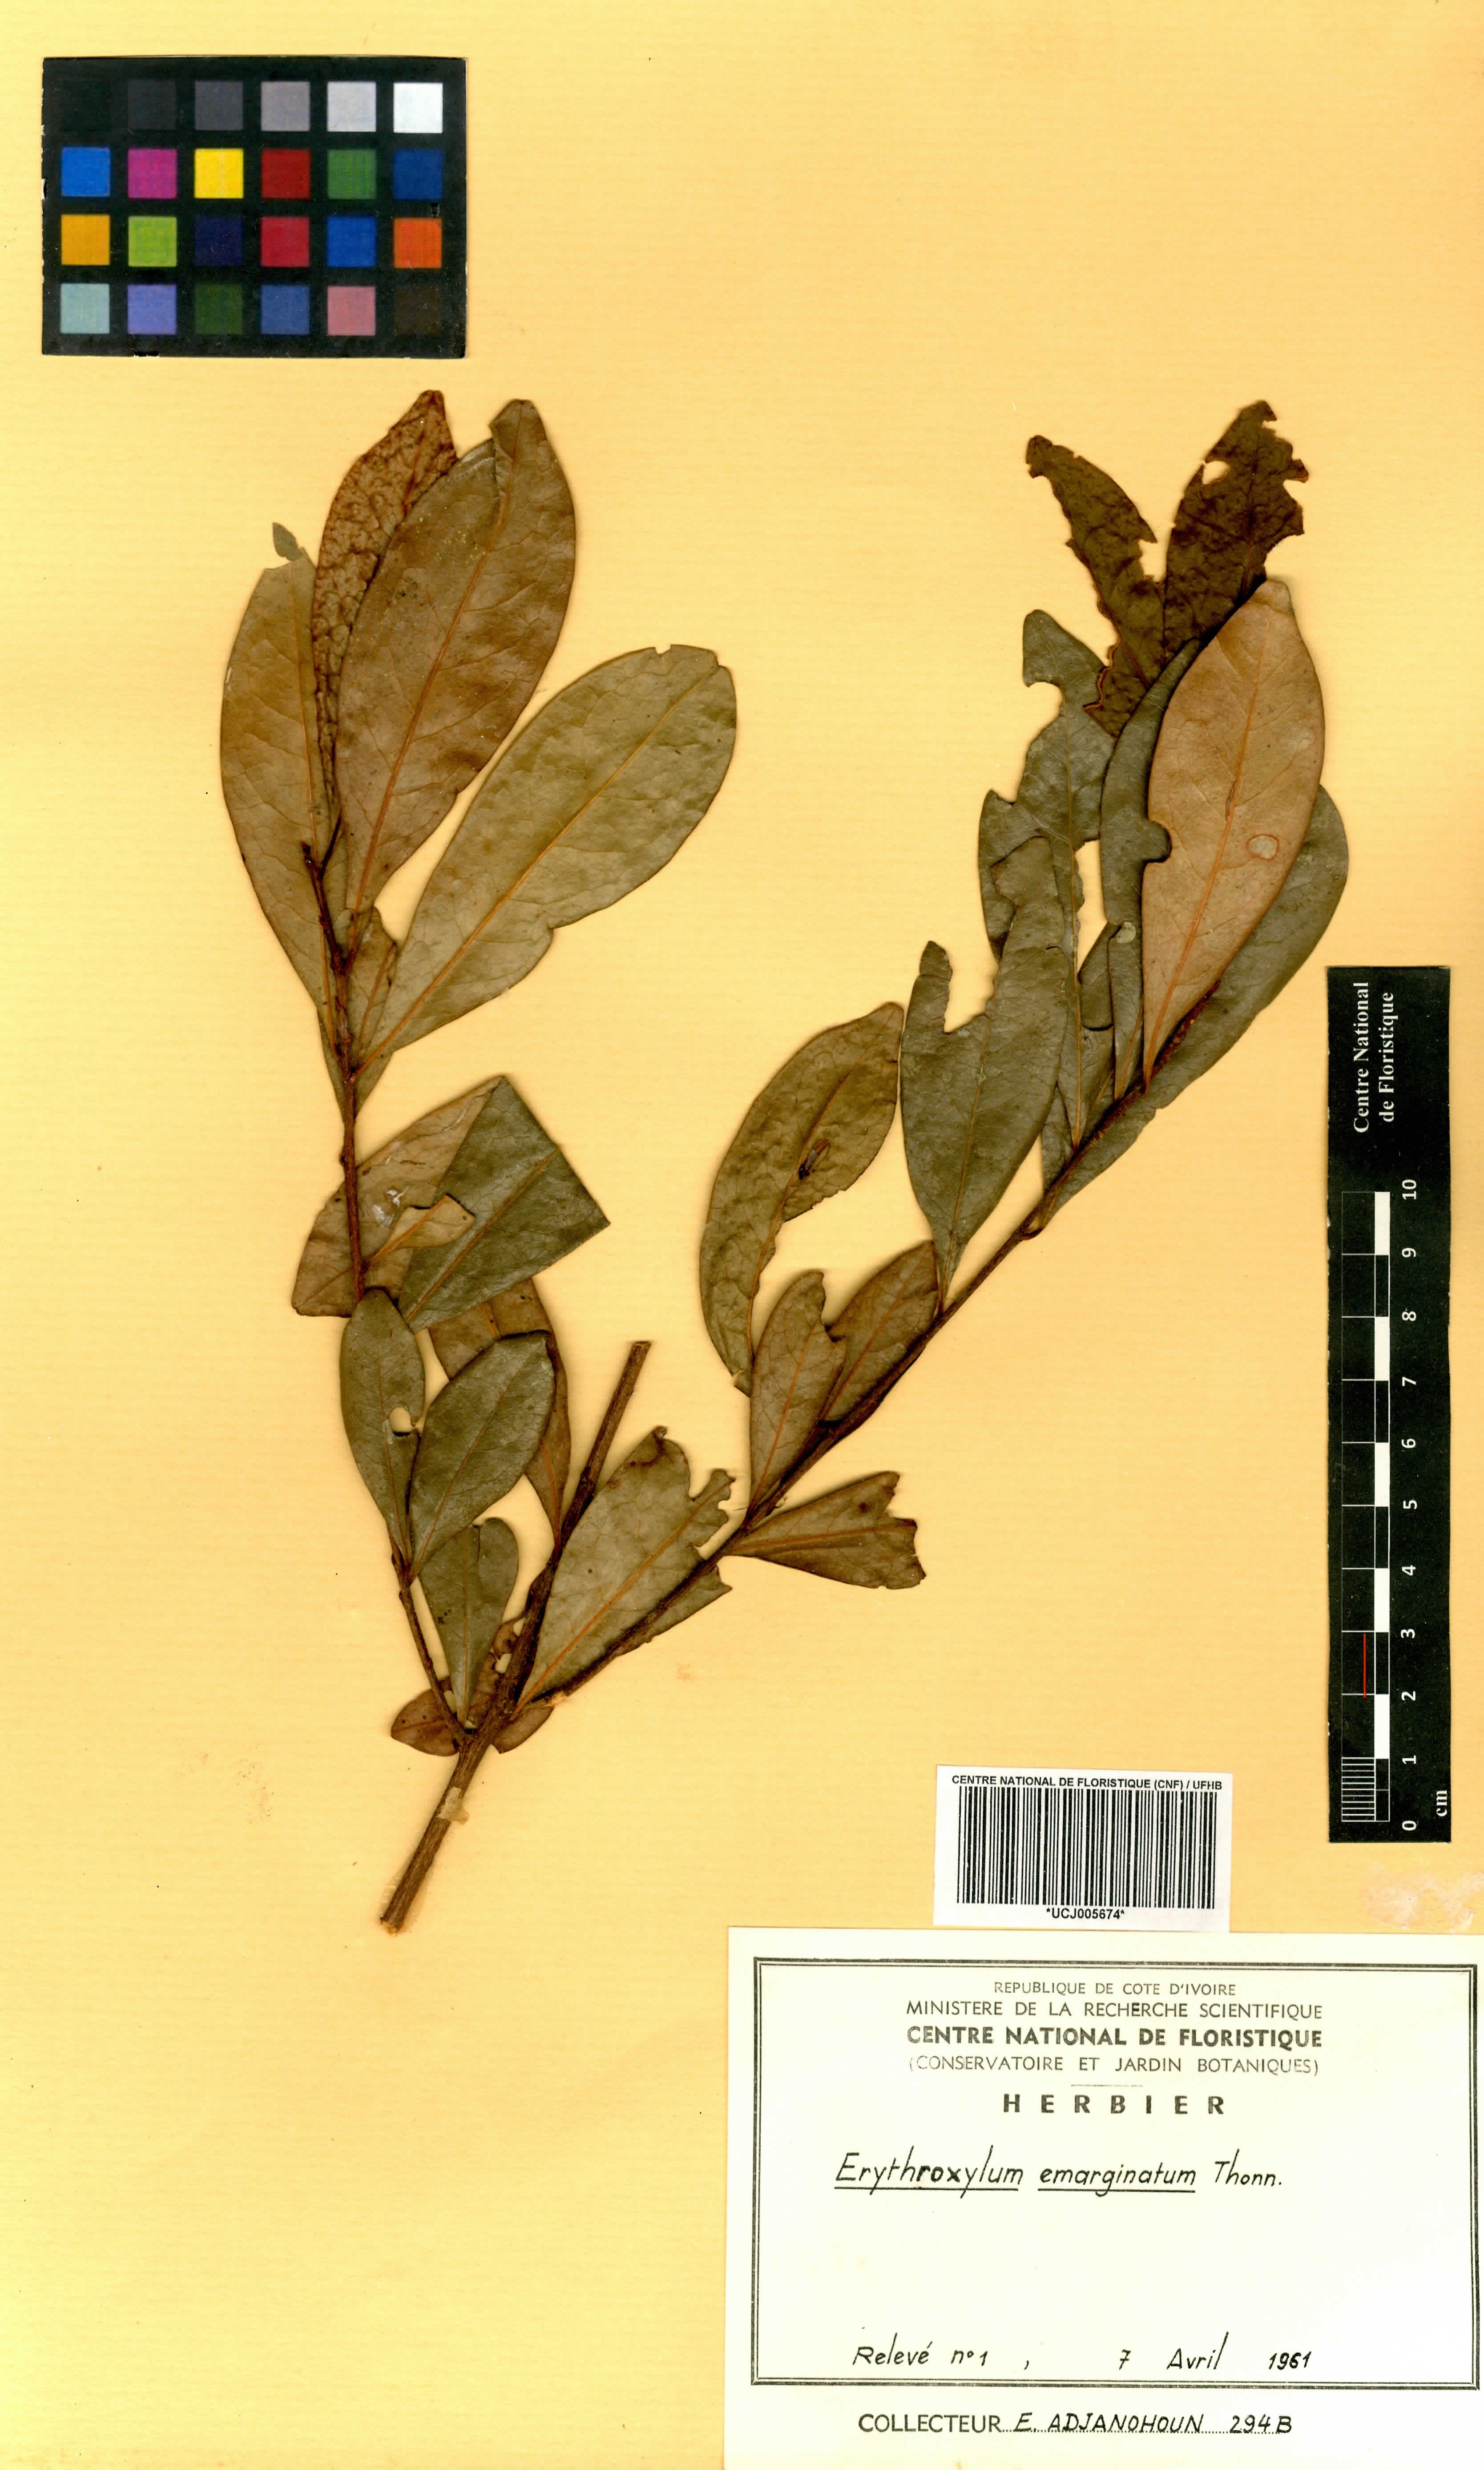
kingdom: Plantae
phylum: Tracheophyta
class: Magnoliopsida
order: Malpighiales
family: Erythroxylaceae
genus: Erythroxylum
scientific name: Erythroxylum emarginatum
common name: African coca-tree
